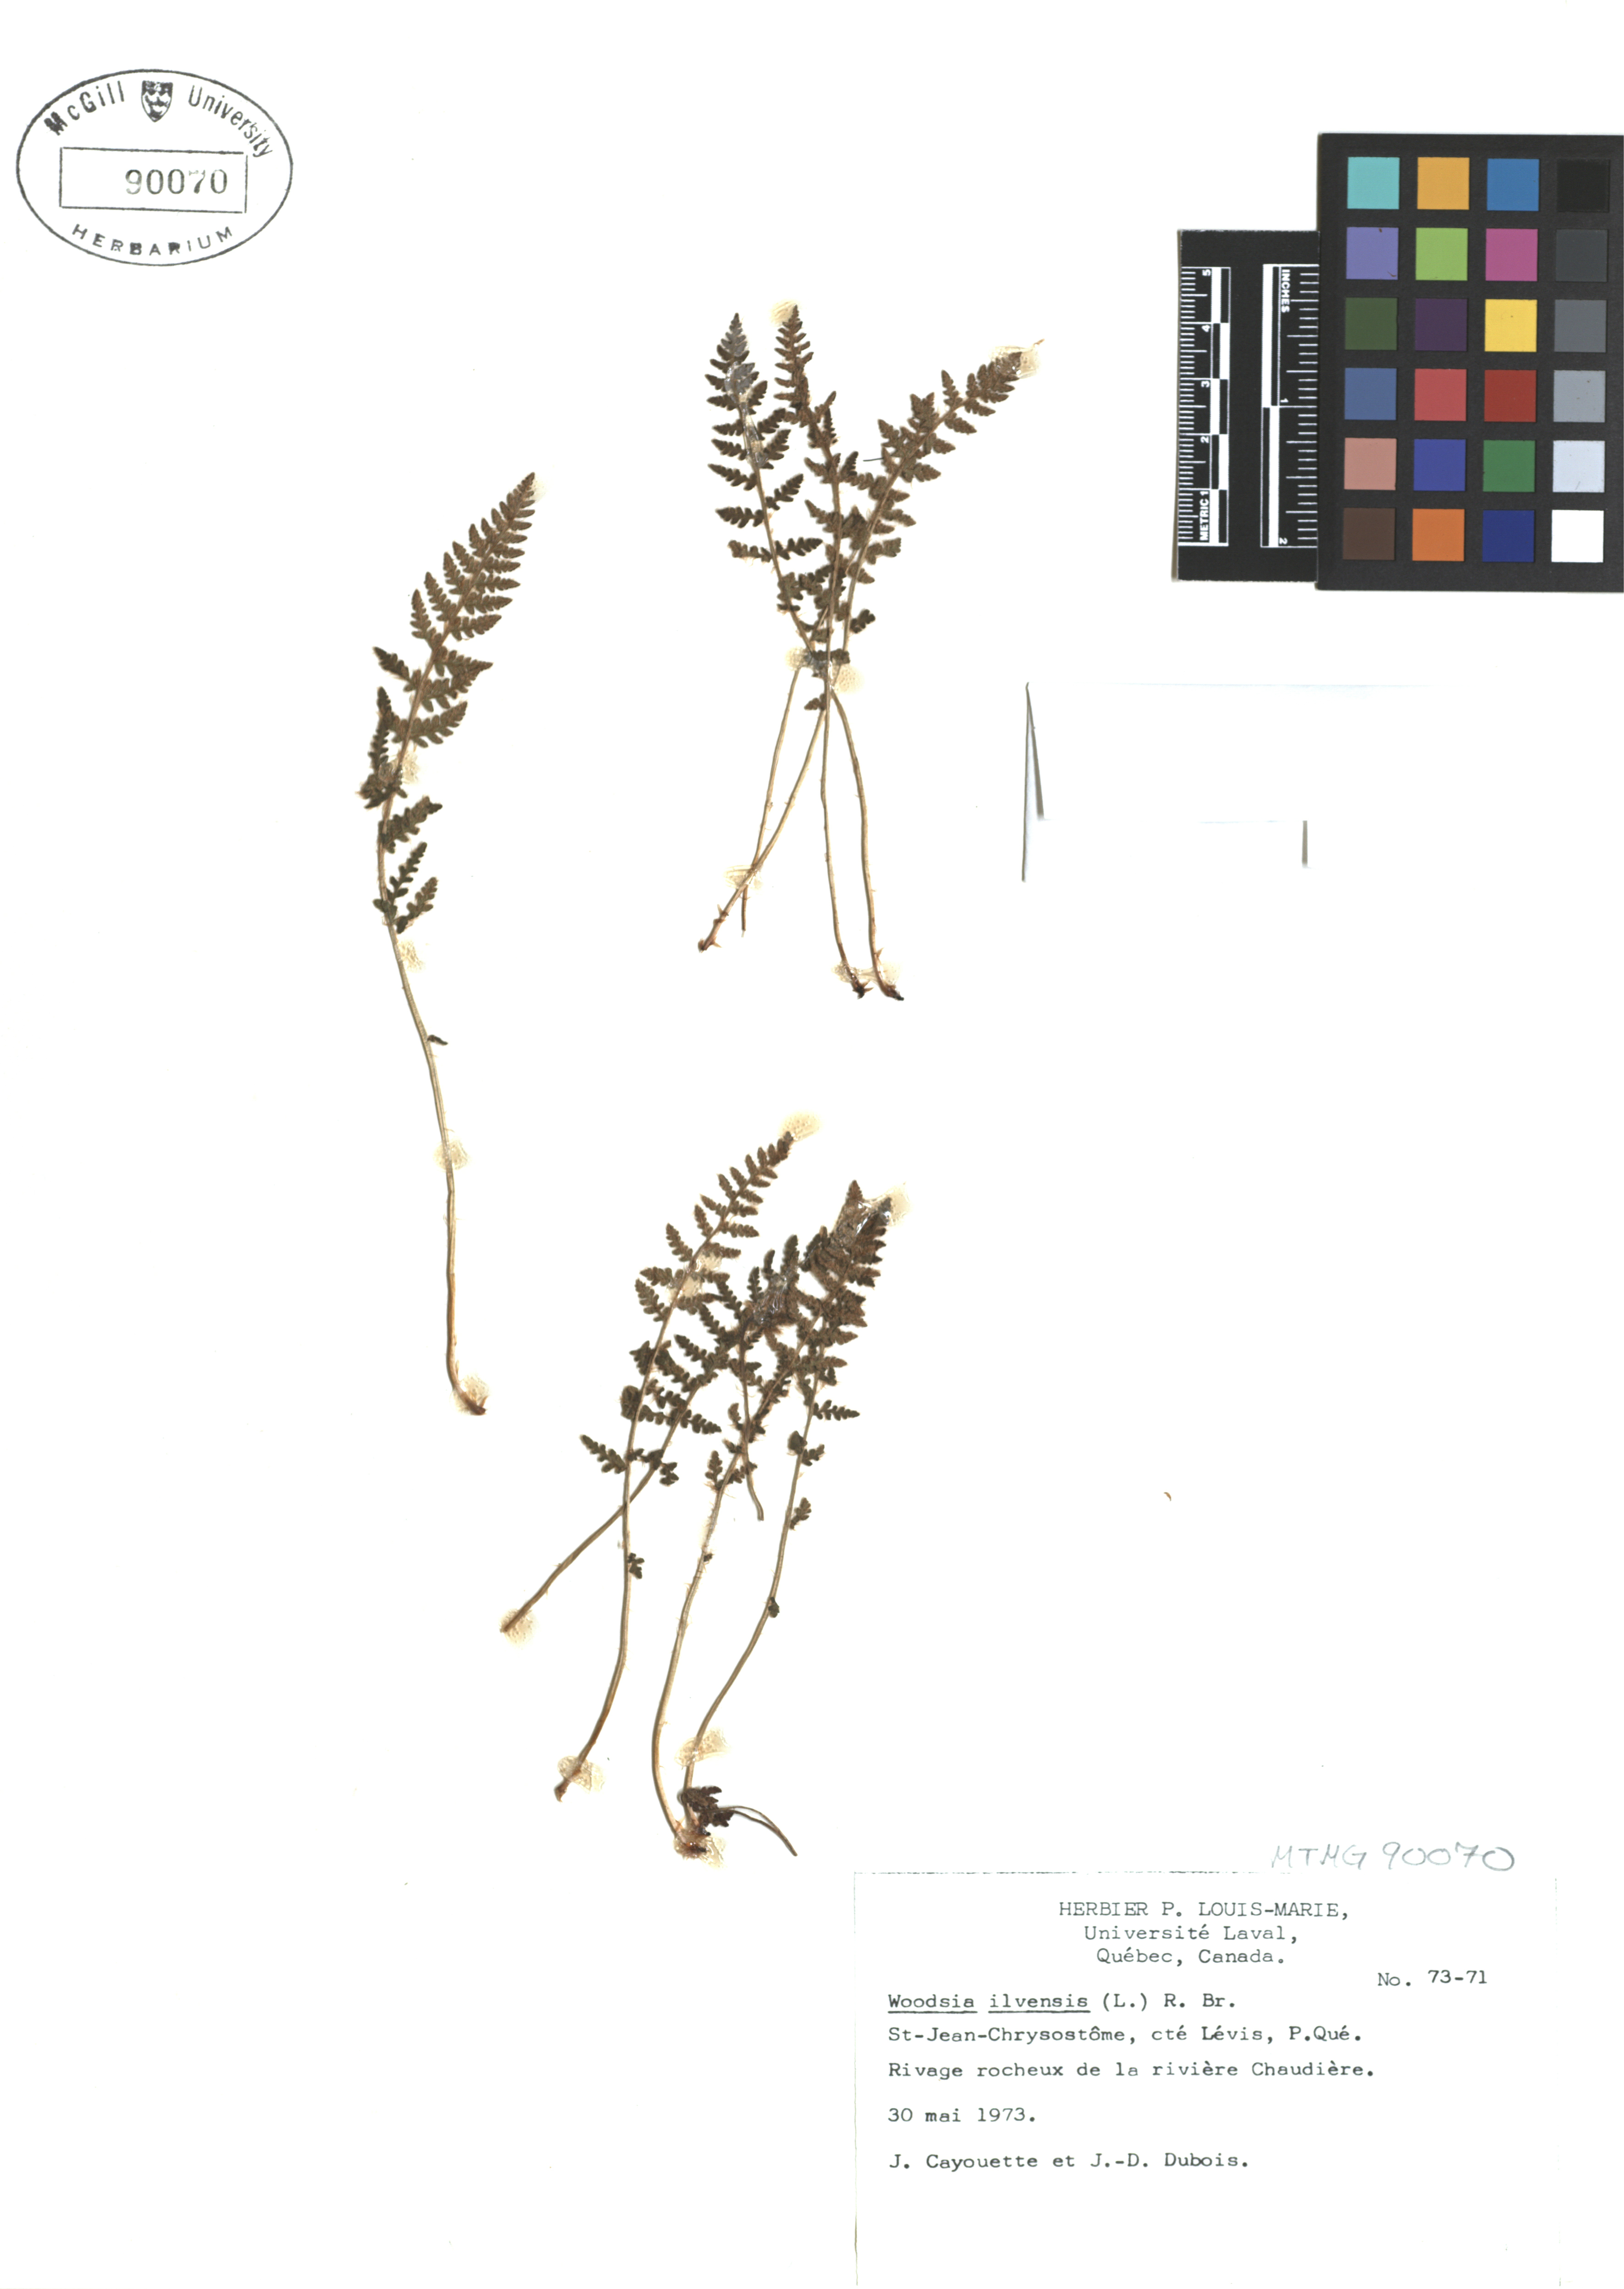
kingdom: Plantae
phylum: Tracheophyta
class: Polypodiopsida
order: Polypodiales
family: Woodsiaceae
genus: Woodsia
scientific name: Woodsia ilvensis
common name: Fragrant woodsia
